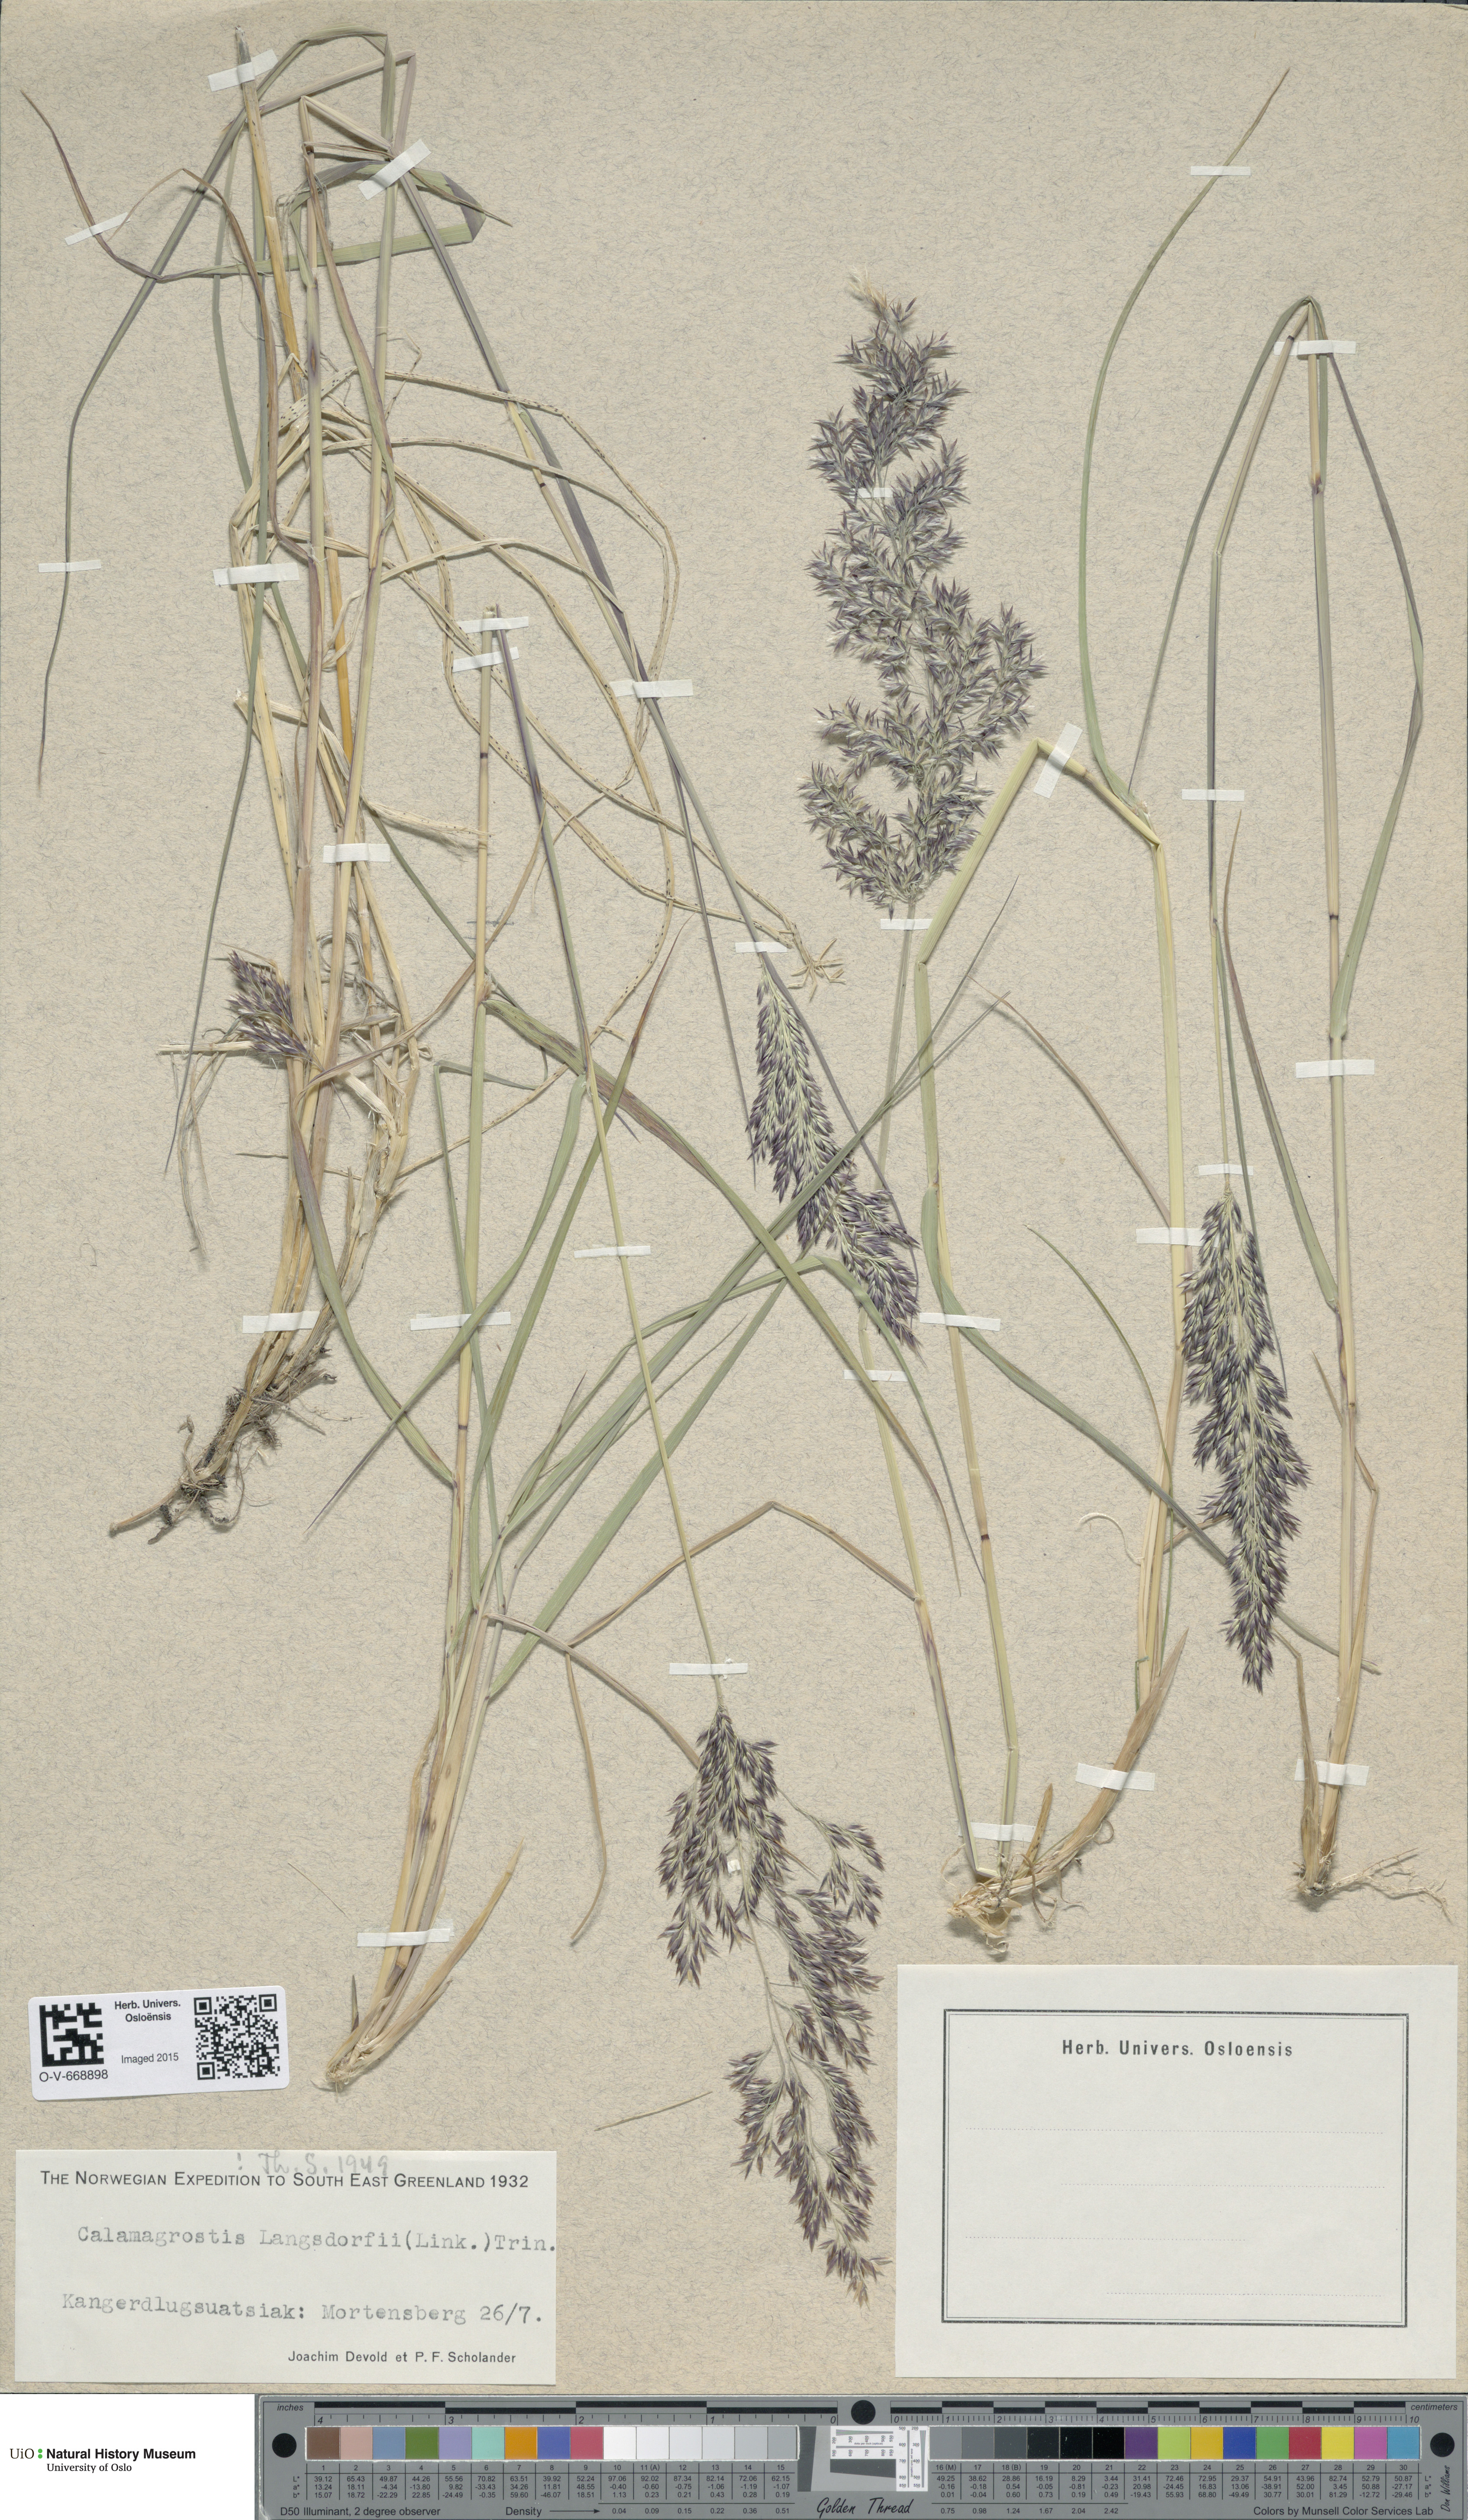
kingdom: Plantae
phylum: Tracheophyta
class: Liliopsida
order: Poales
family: Poaceae
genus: Calamagrostis
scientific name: Calamagrostis purpurea
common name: Scandinavian small-reed
